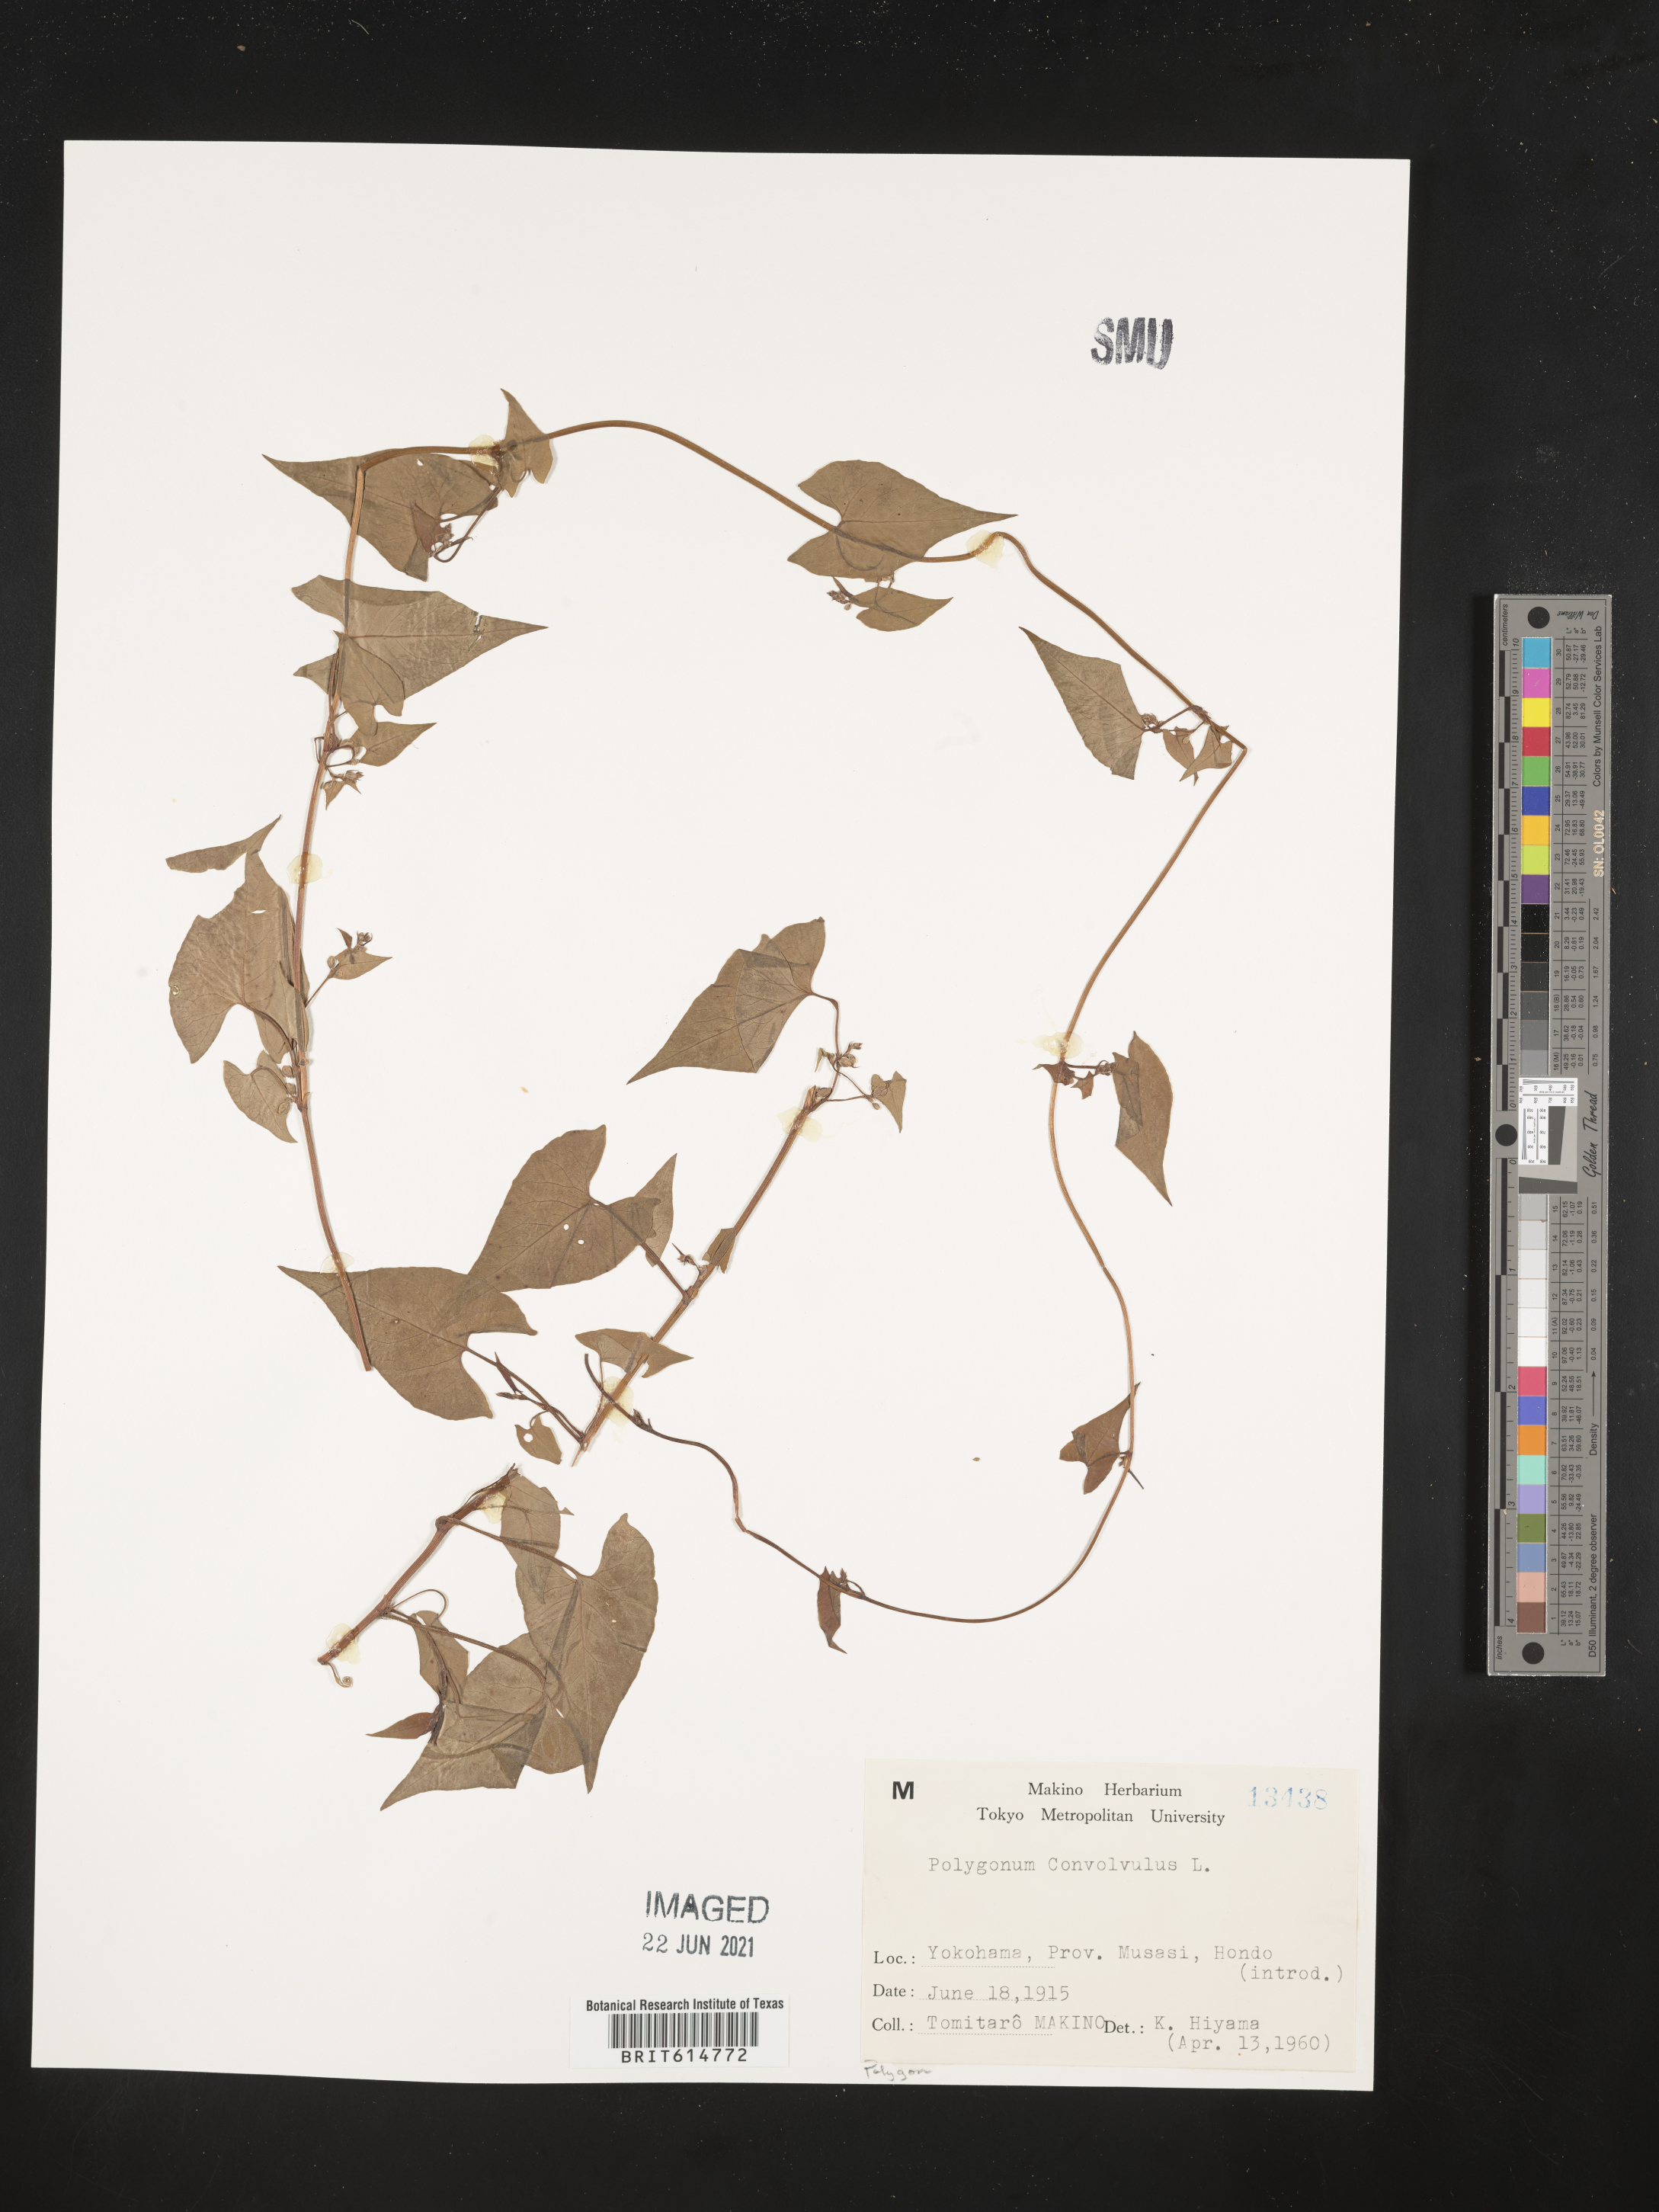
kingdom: Plantae
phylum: Tracheophyta
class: Magnoliopsida
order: Caryophyllales
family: Polygonaceae
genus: Fallopia
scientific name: Fallopia convolvulus
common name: Black bindweed
